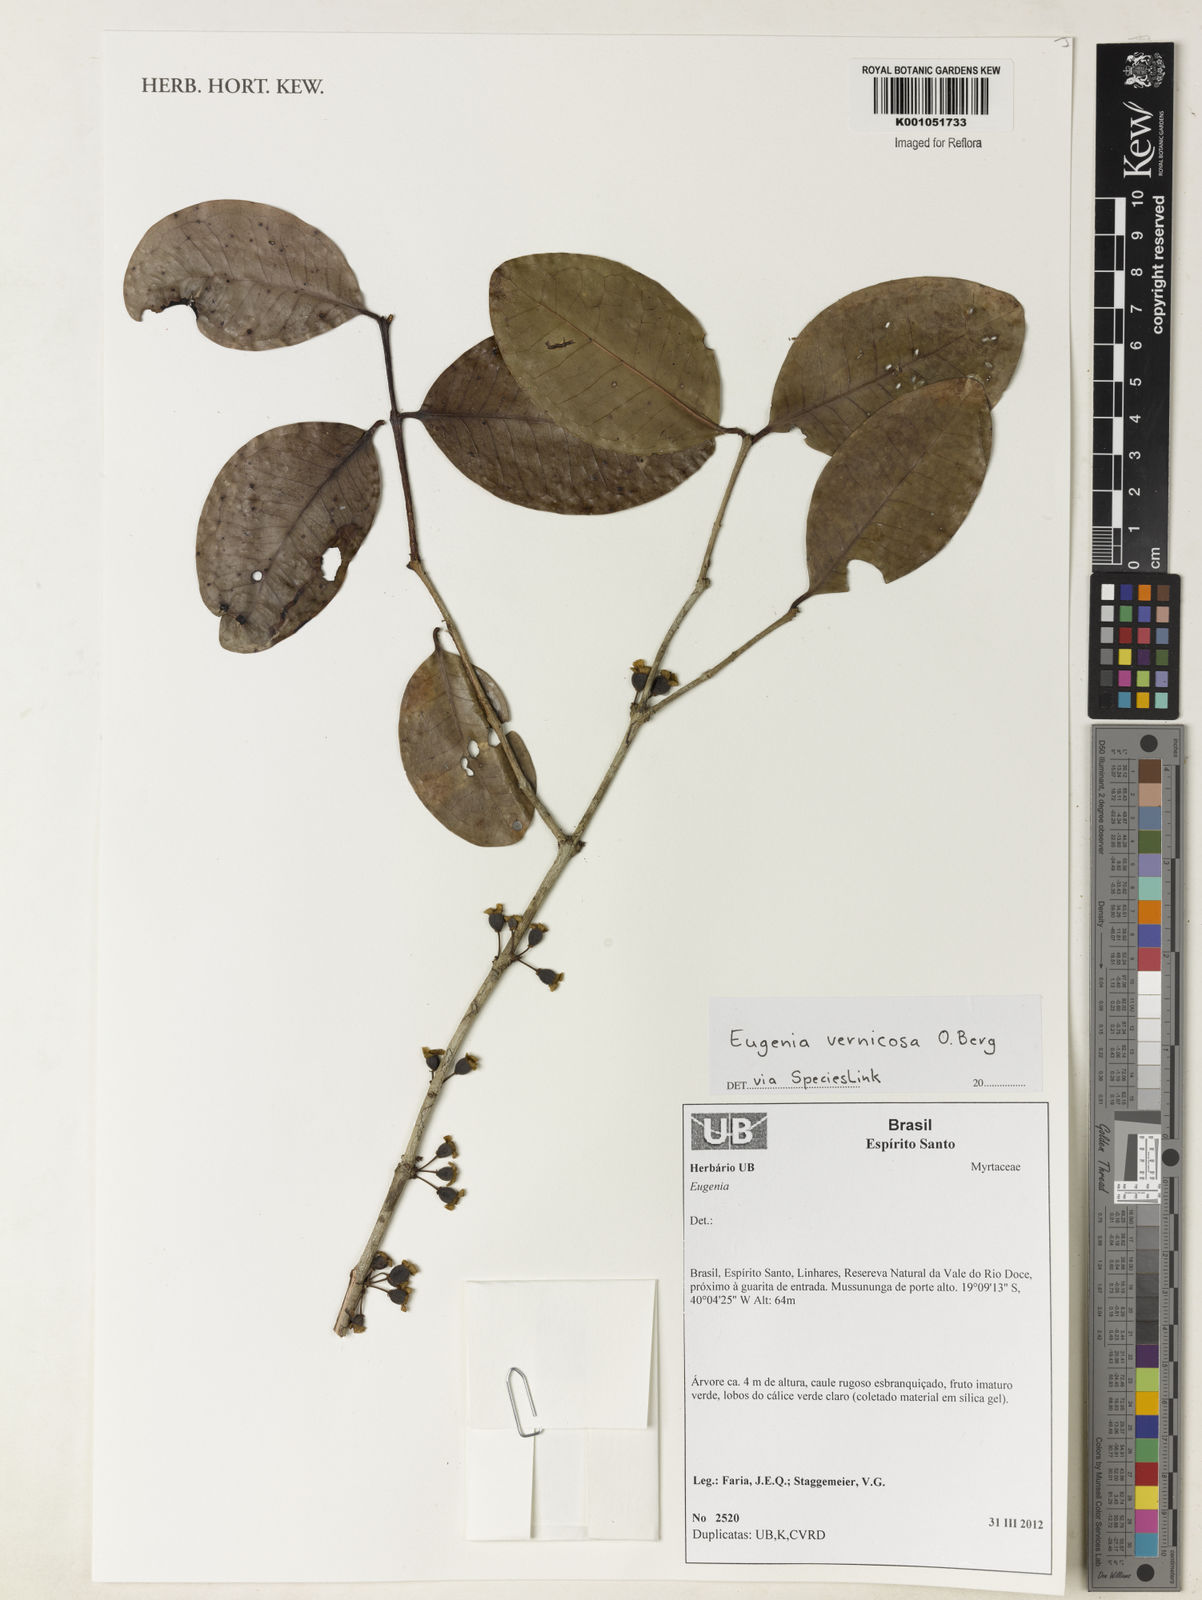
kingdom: Plantae
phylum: Tracheophyta
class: Magnoliopsida
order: Myrtales
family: Myrtaceae
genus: Eugenia
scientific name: Eugenia bimarginata
